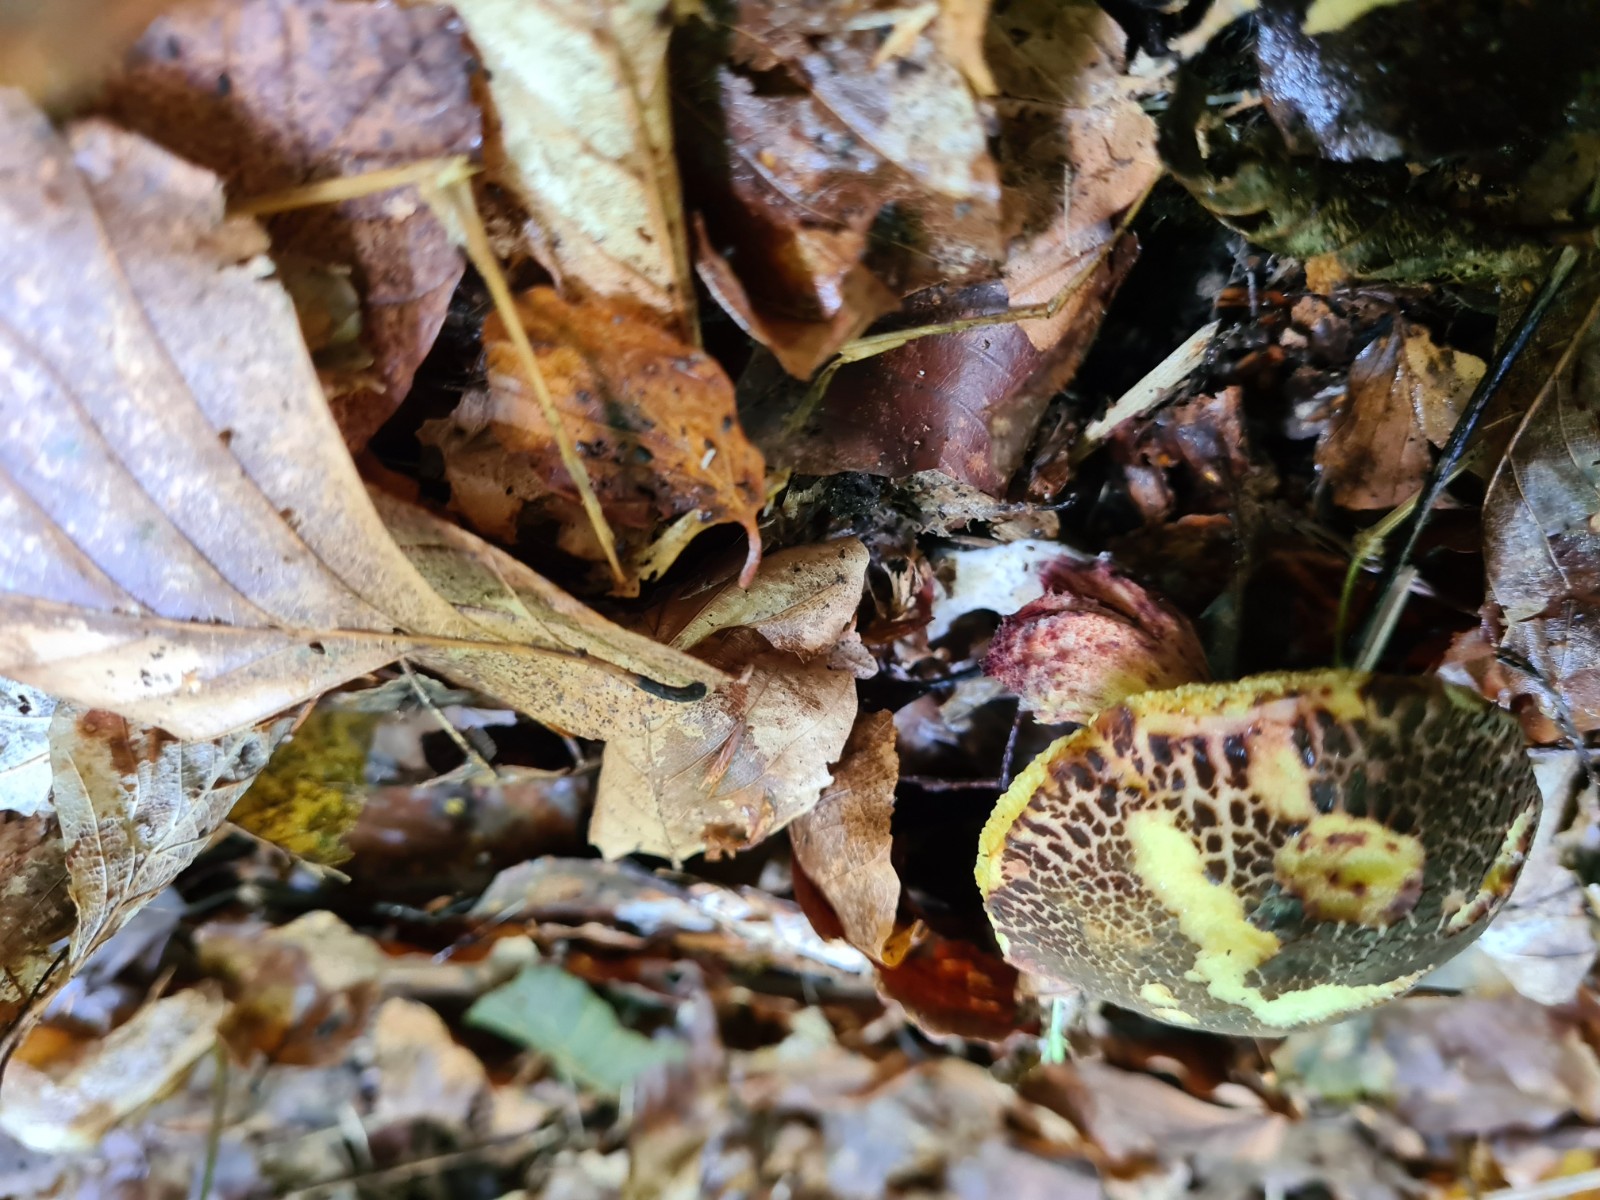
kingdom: Fungi
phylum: Basidiomycota
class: Agaricomycetes
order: Boletales
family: Boletaceae
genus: Xerocomellus
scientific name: Xerocomellus
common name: dværgrørhat
